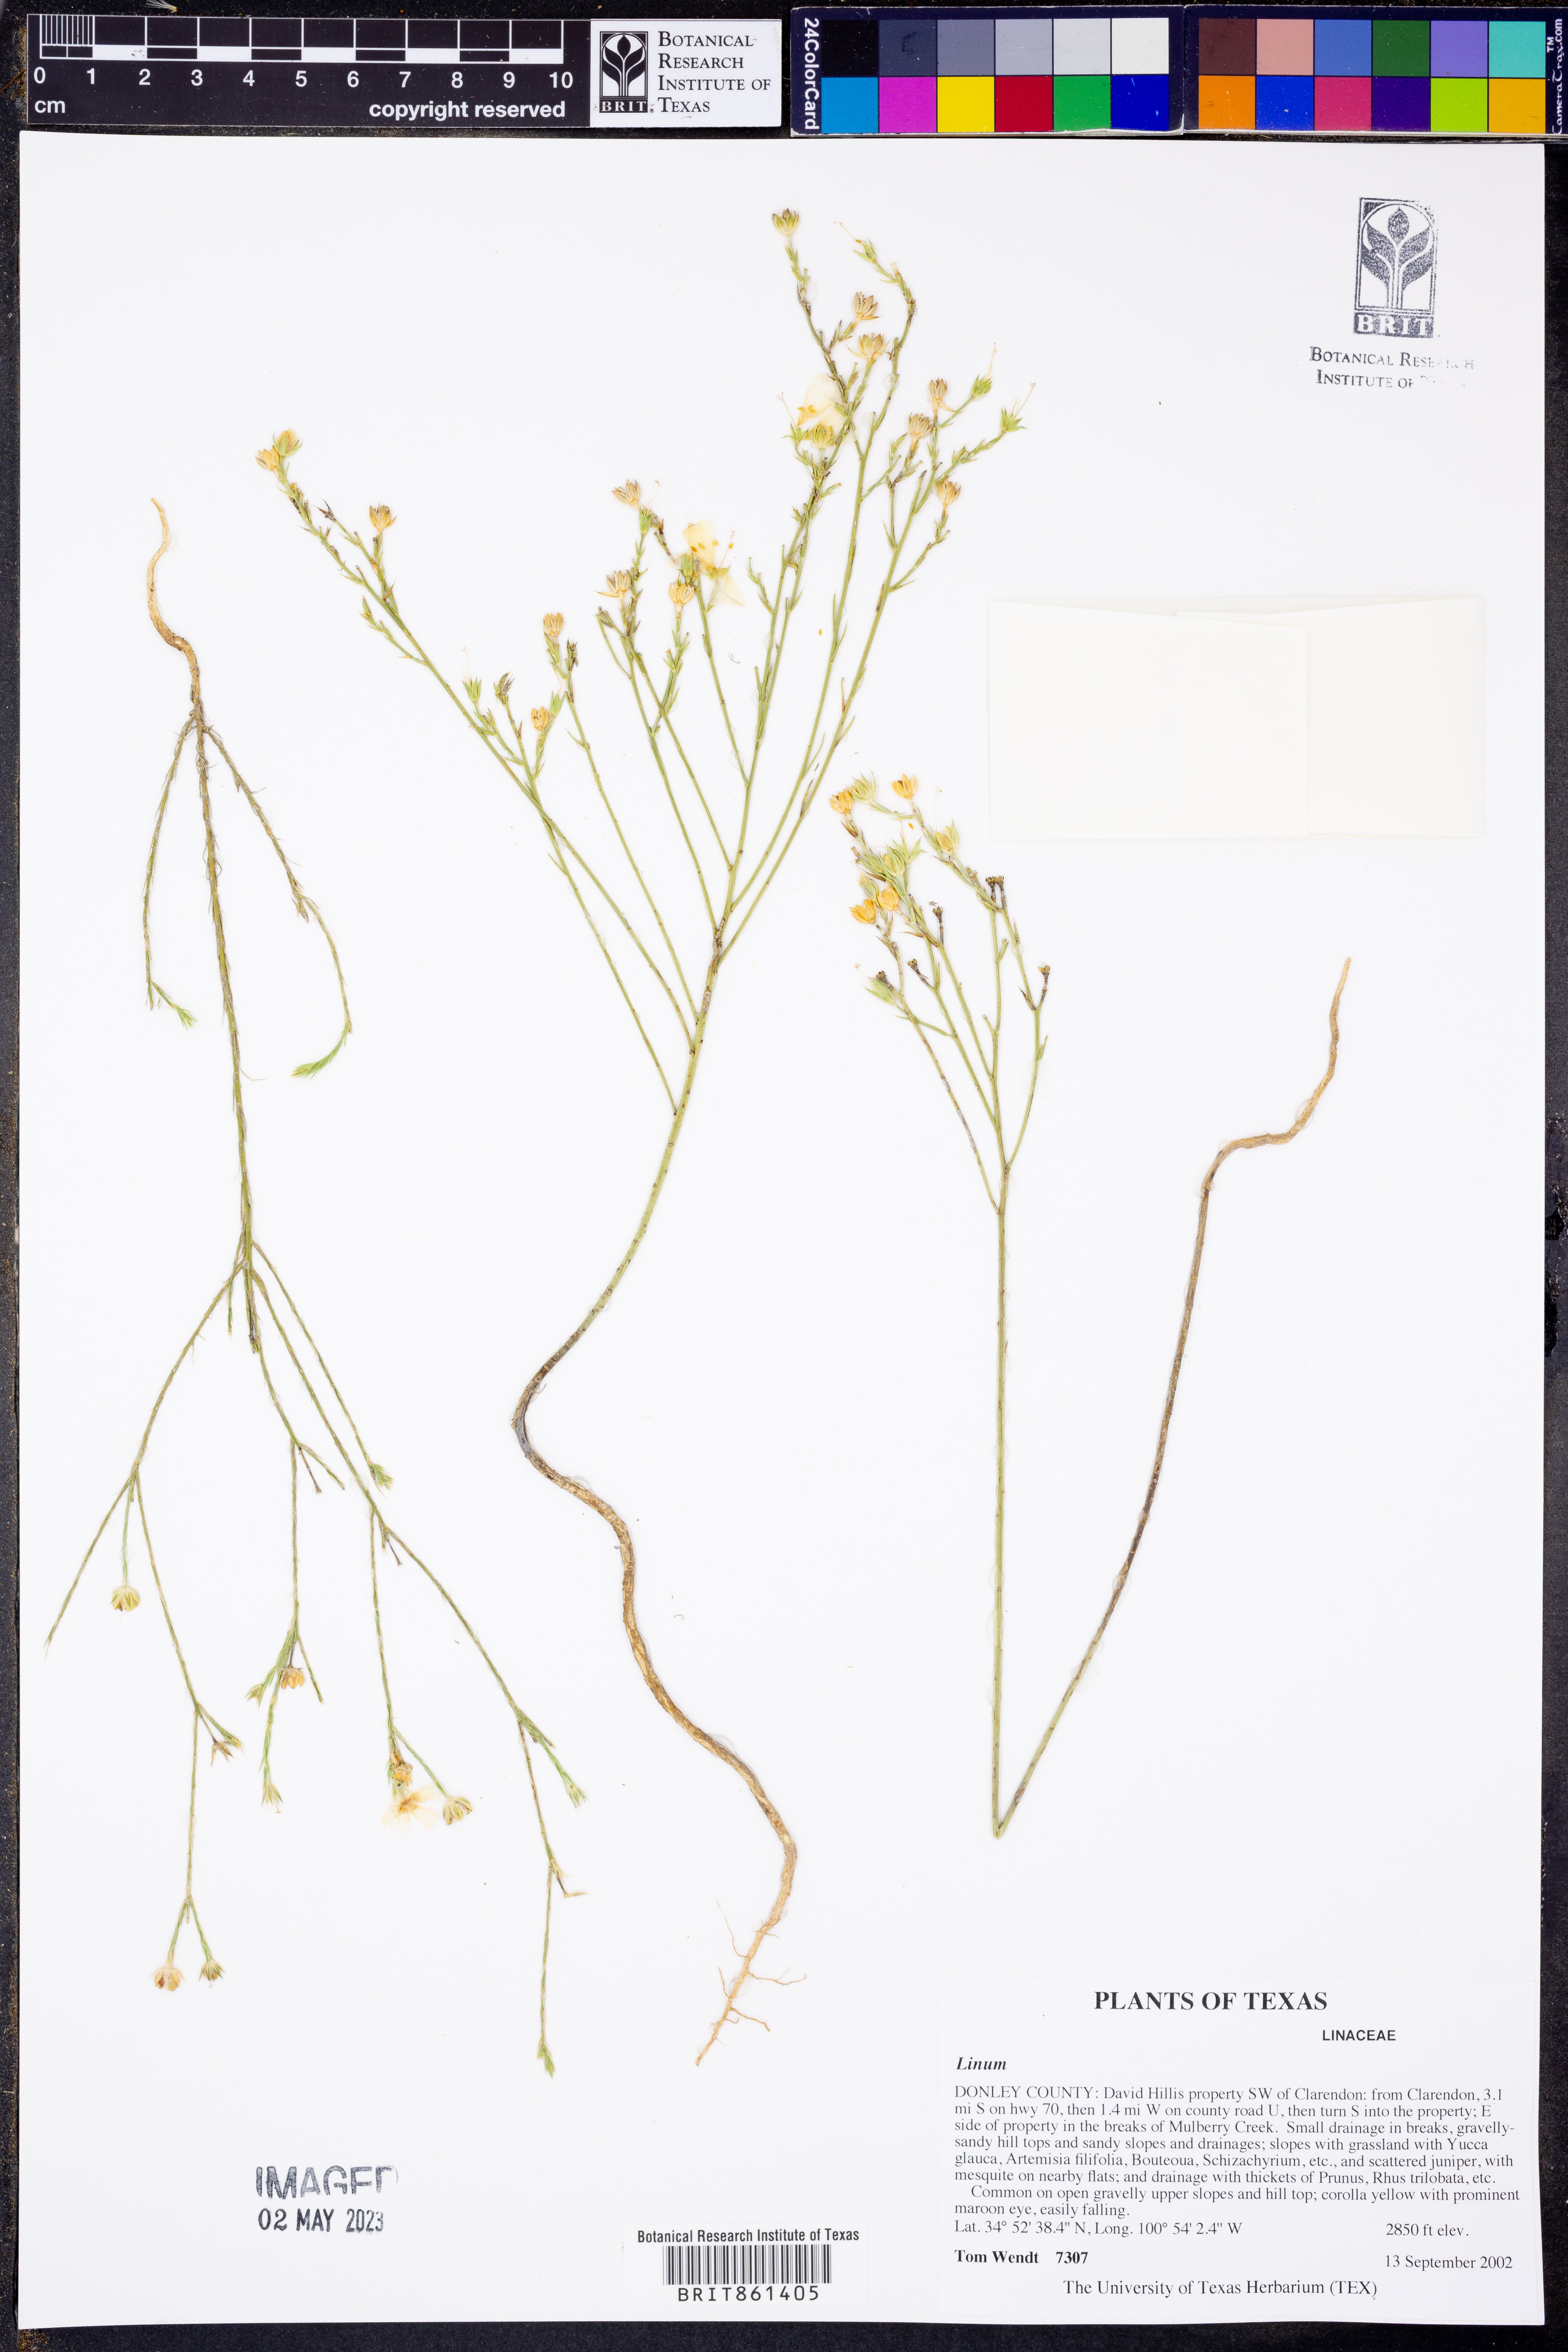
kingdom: Plantae
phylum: Tracheophyta
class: Magnoliopsida
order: Malpighiales
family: Linaceae
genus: Linum
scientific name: Linum
